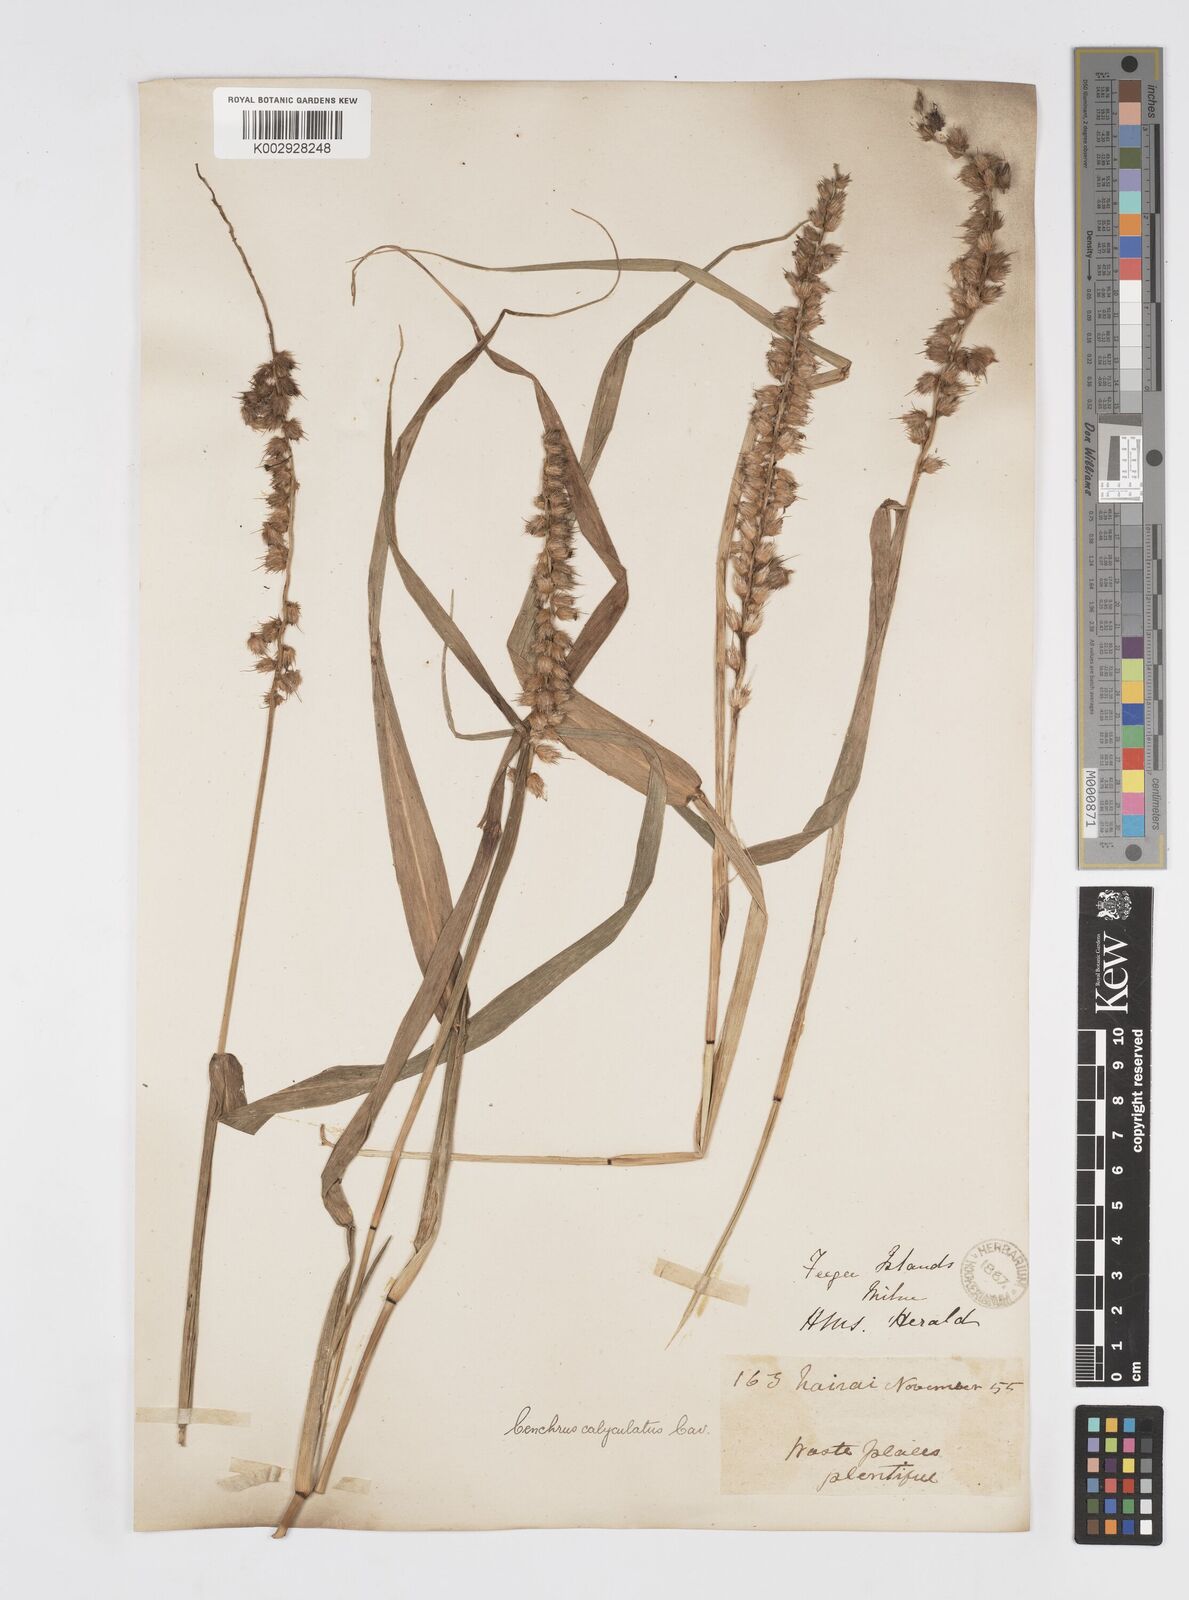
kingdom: Plantae
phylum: Tracheophyta
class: Liliopsida
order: Poales
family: Poaceae
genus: Cenchrus
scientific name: Cenchrus caliculatus
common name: Large bur grass
